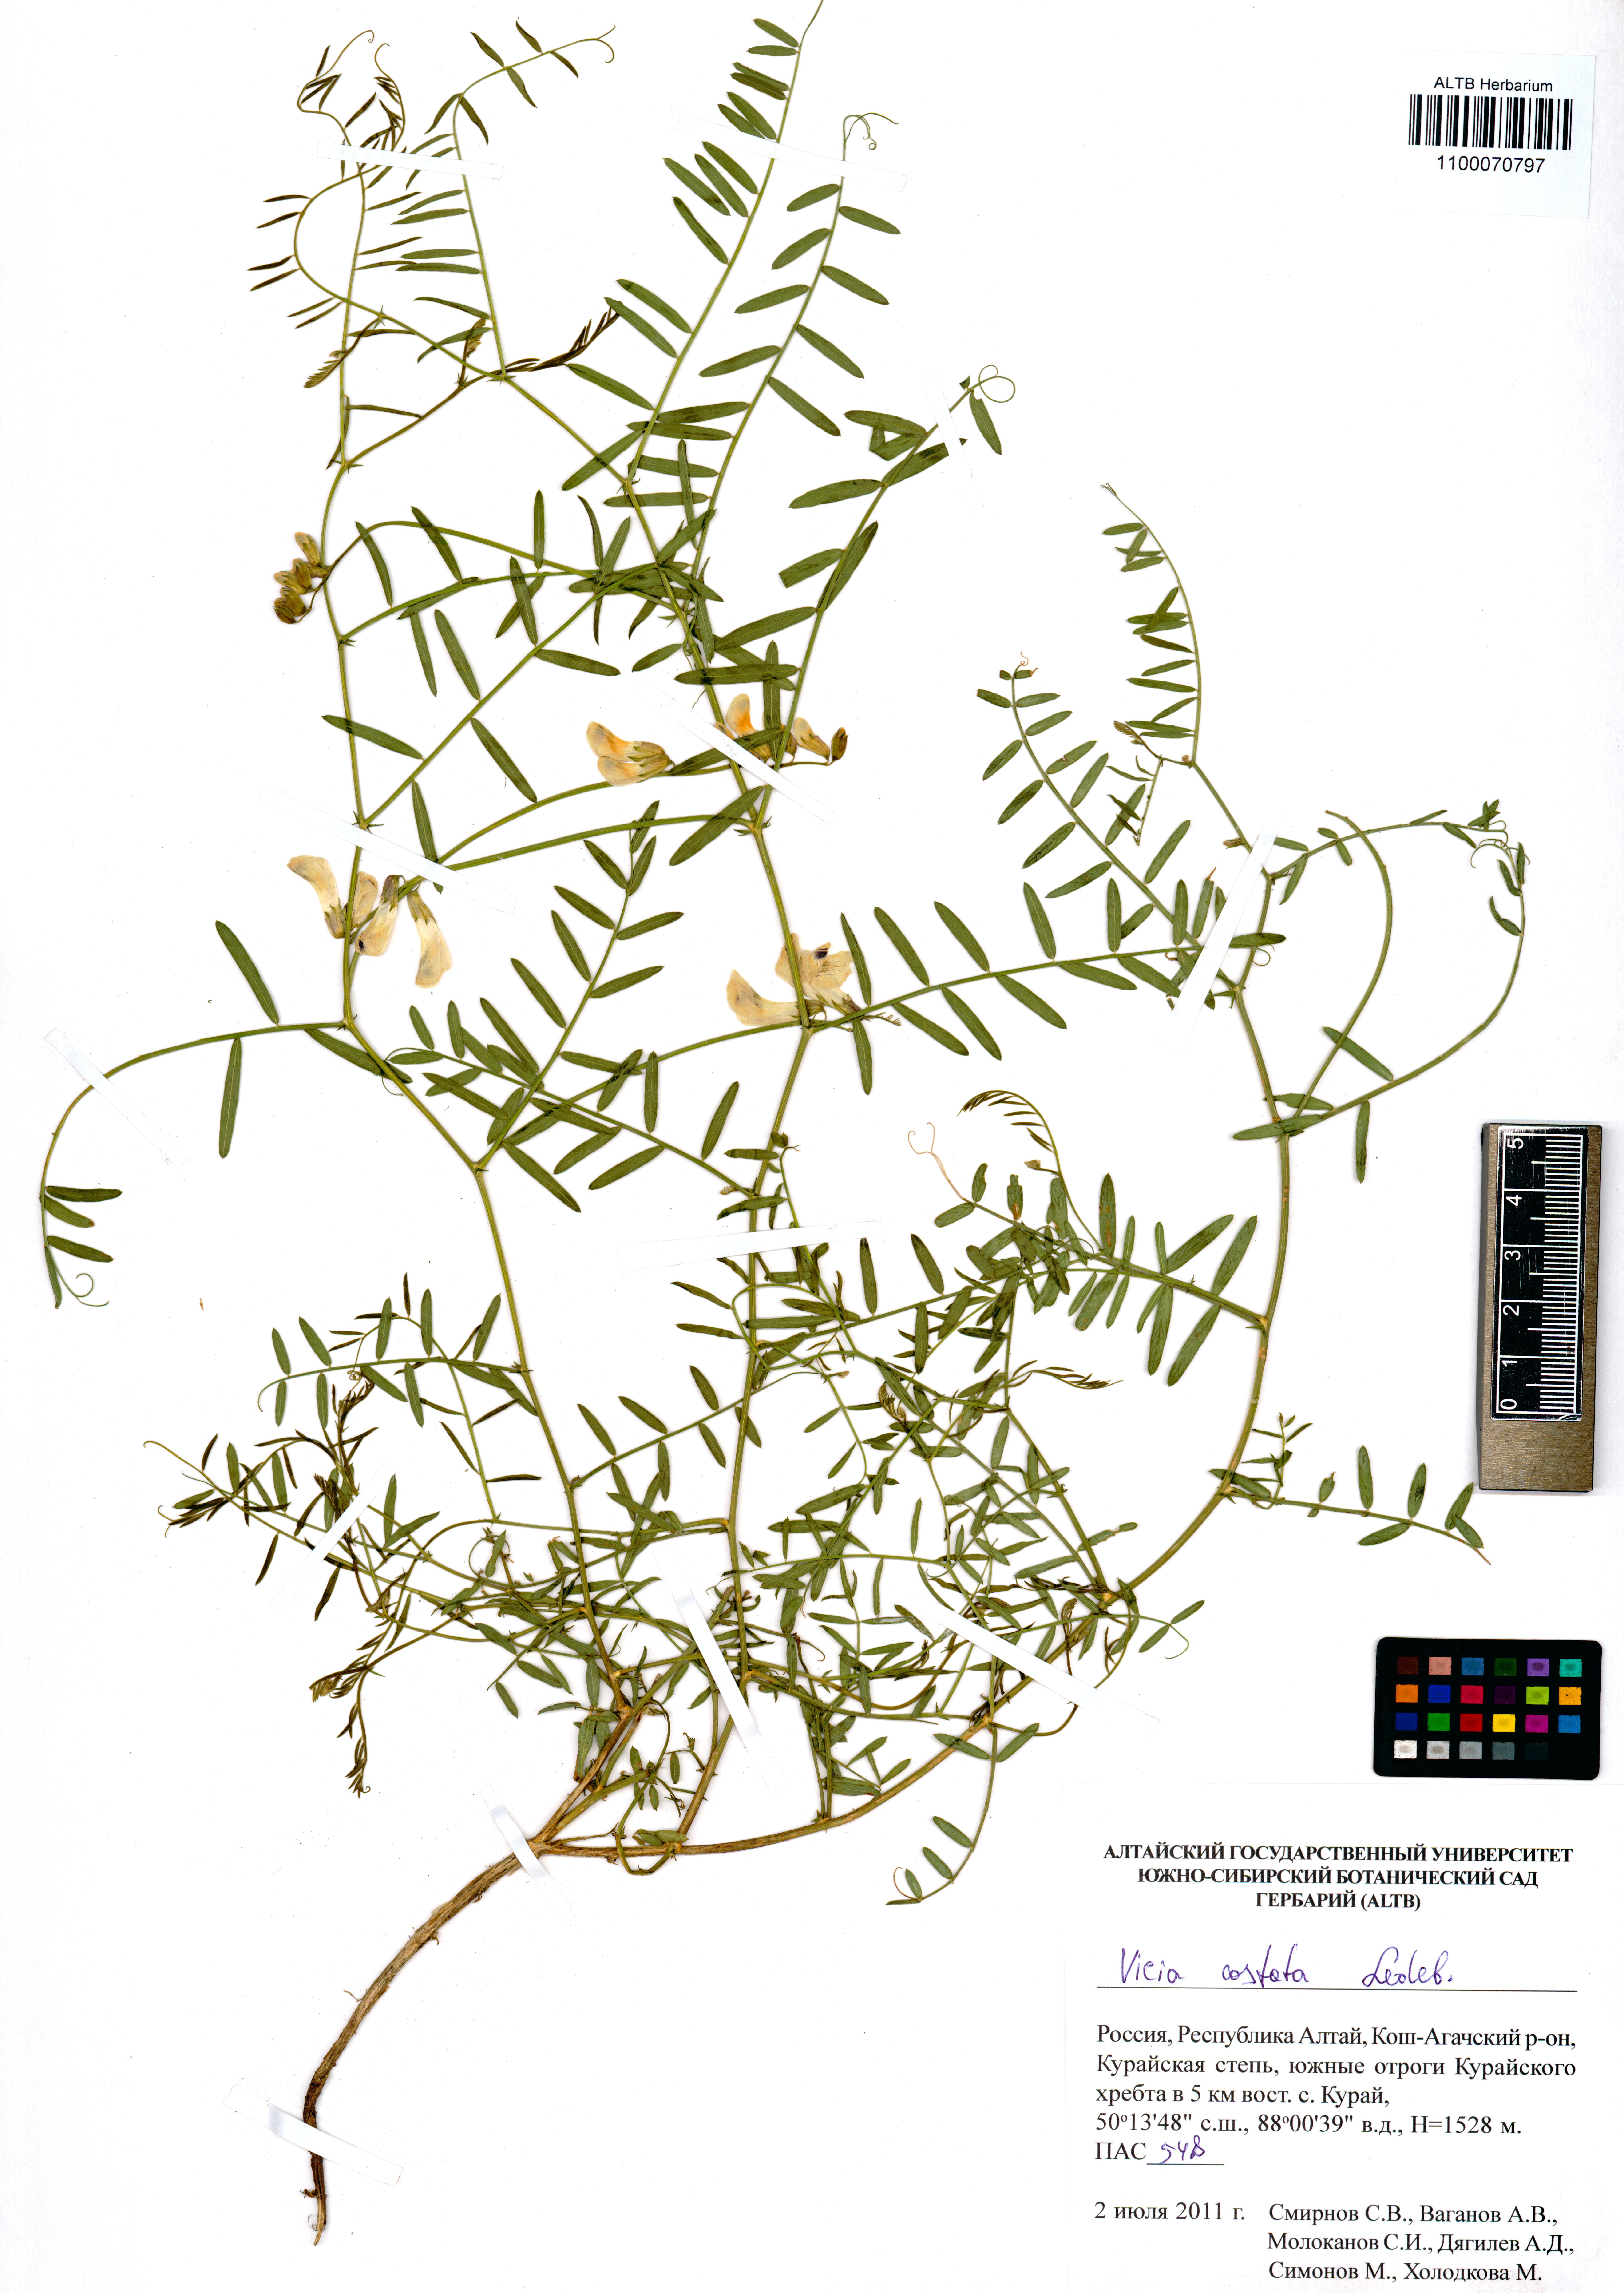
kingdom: Plantae
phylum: Tracheophyta
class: Magnoliopsida
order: Fabales
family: Fabaceae
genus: Vicia
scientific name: Vicia costata
